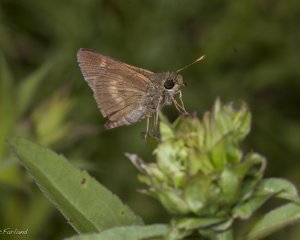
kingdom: Animalia
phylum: Arthropoda
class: Insecta
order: Lepidoptera
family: Hesperiidae
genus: Polites
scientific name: Polites egeremet
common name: Northern Broken-Dash
